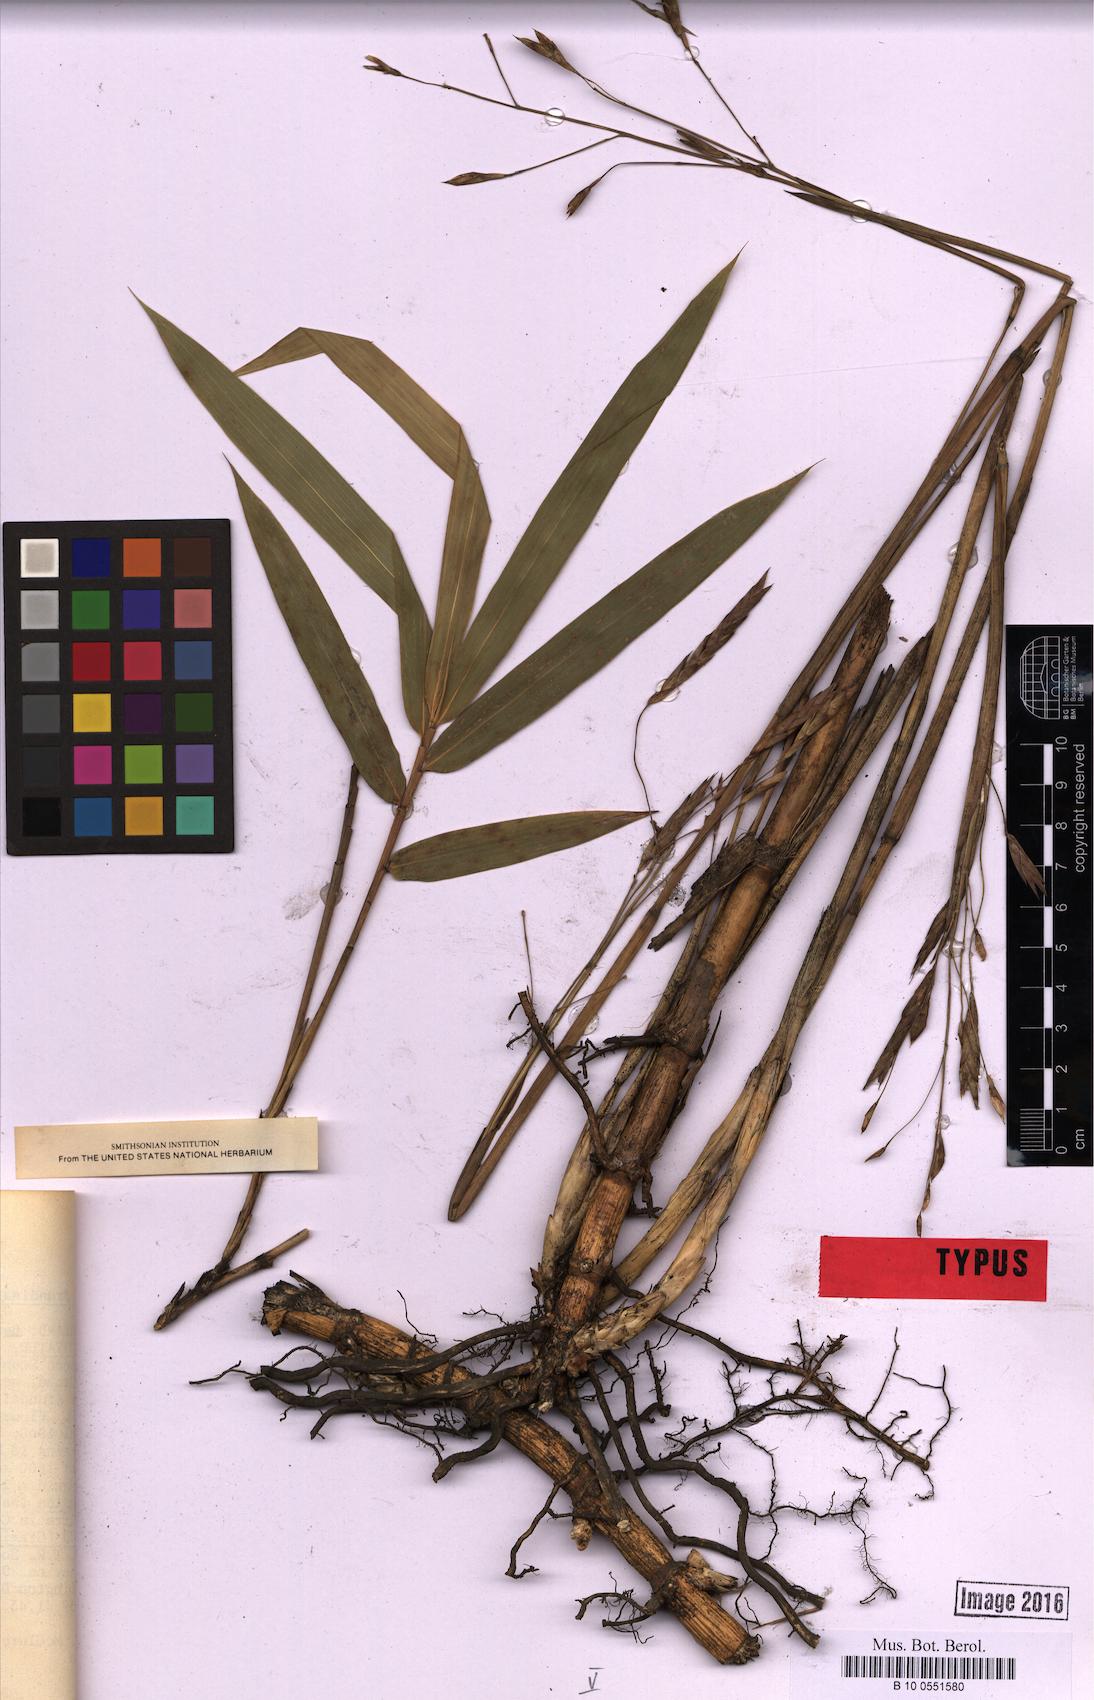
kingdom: Plantae
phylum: Tracheophyta
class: Liliopsida
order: Poales
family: Poaceae
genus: Arundinaria
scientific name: Arundinaria tecta
